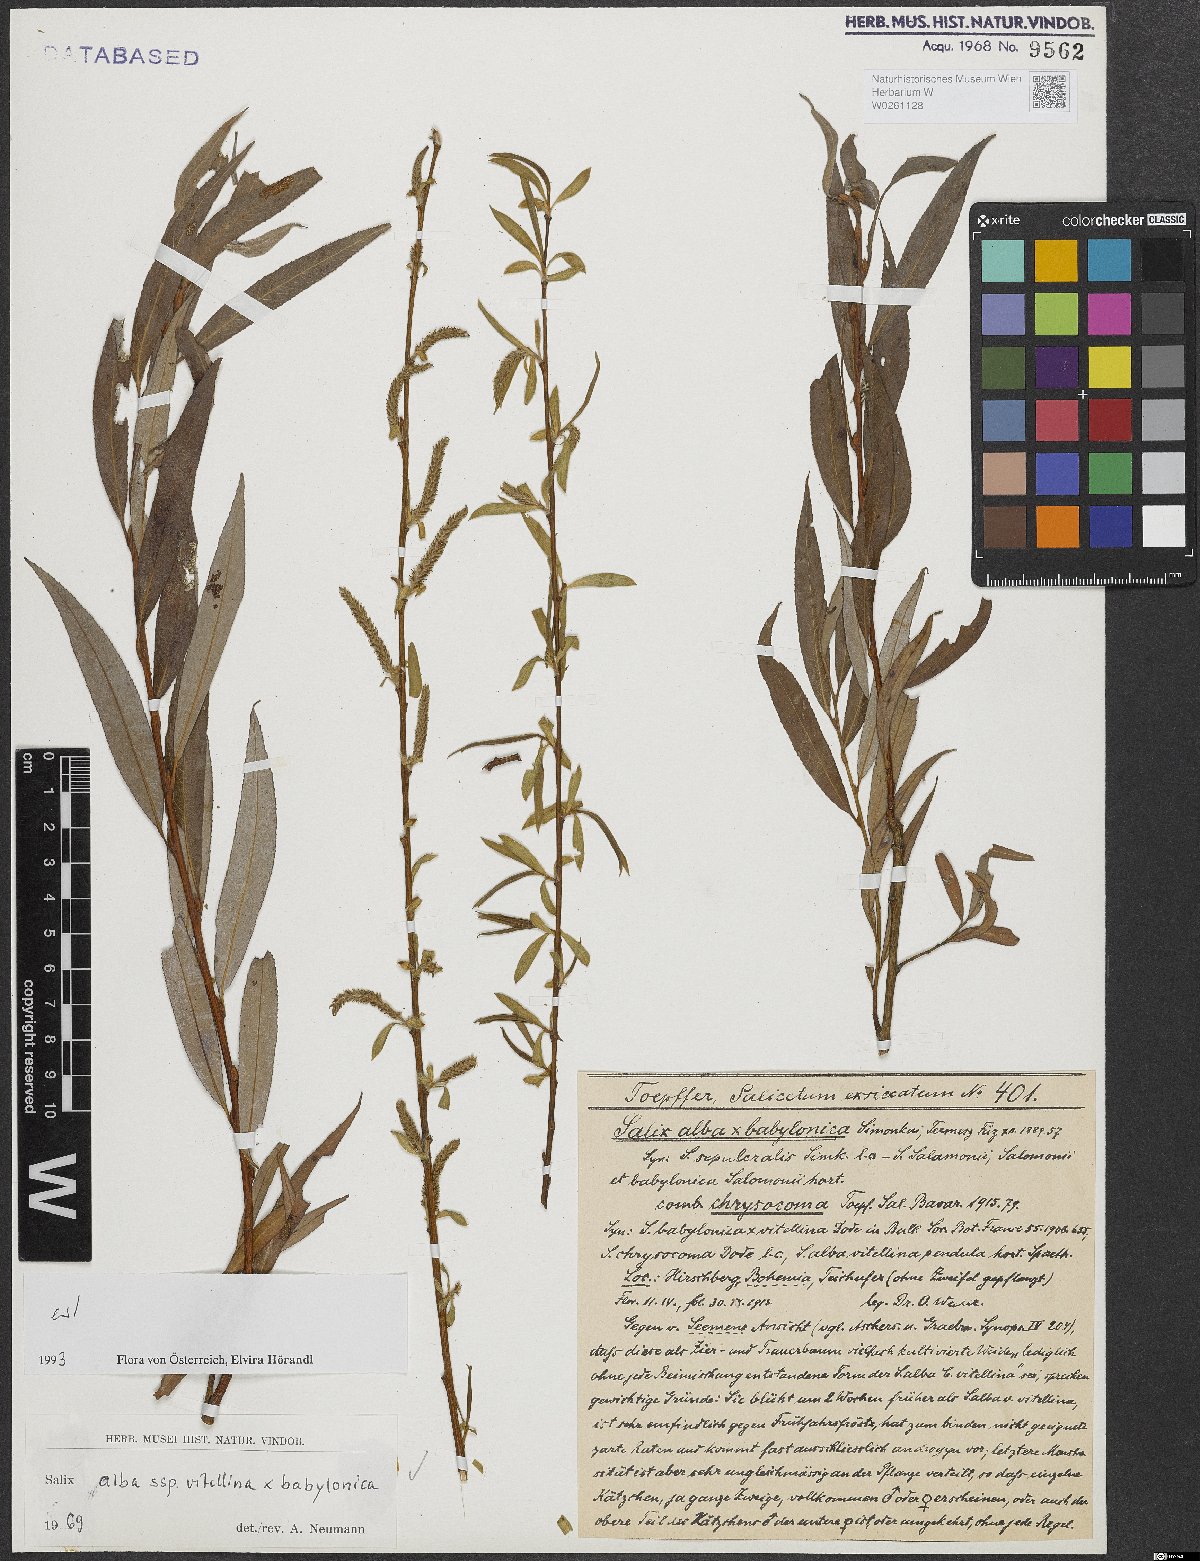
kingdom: Plantae
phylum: Tracheophyta
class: Magnoliopsida
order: Malpighiales
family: Salicaceae
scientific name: Salicaceae
